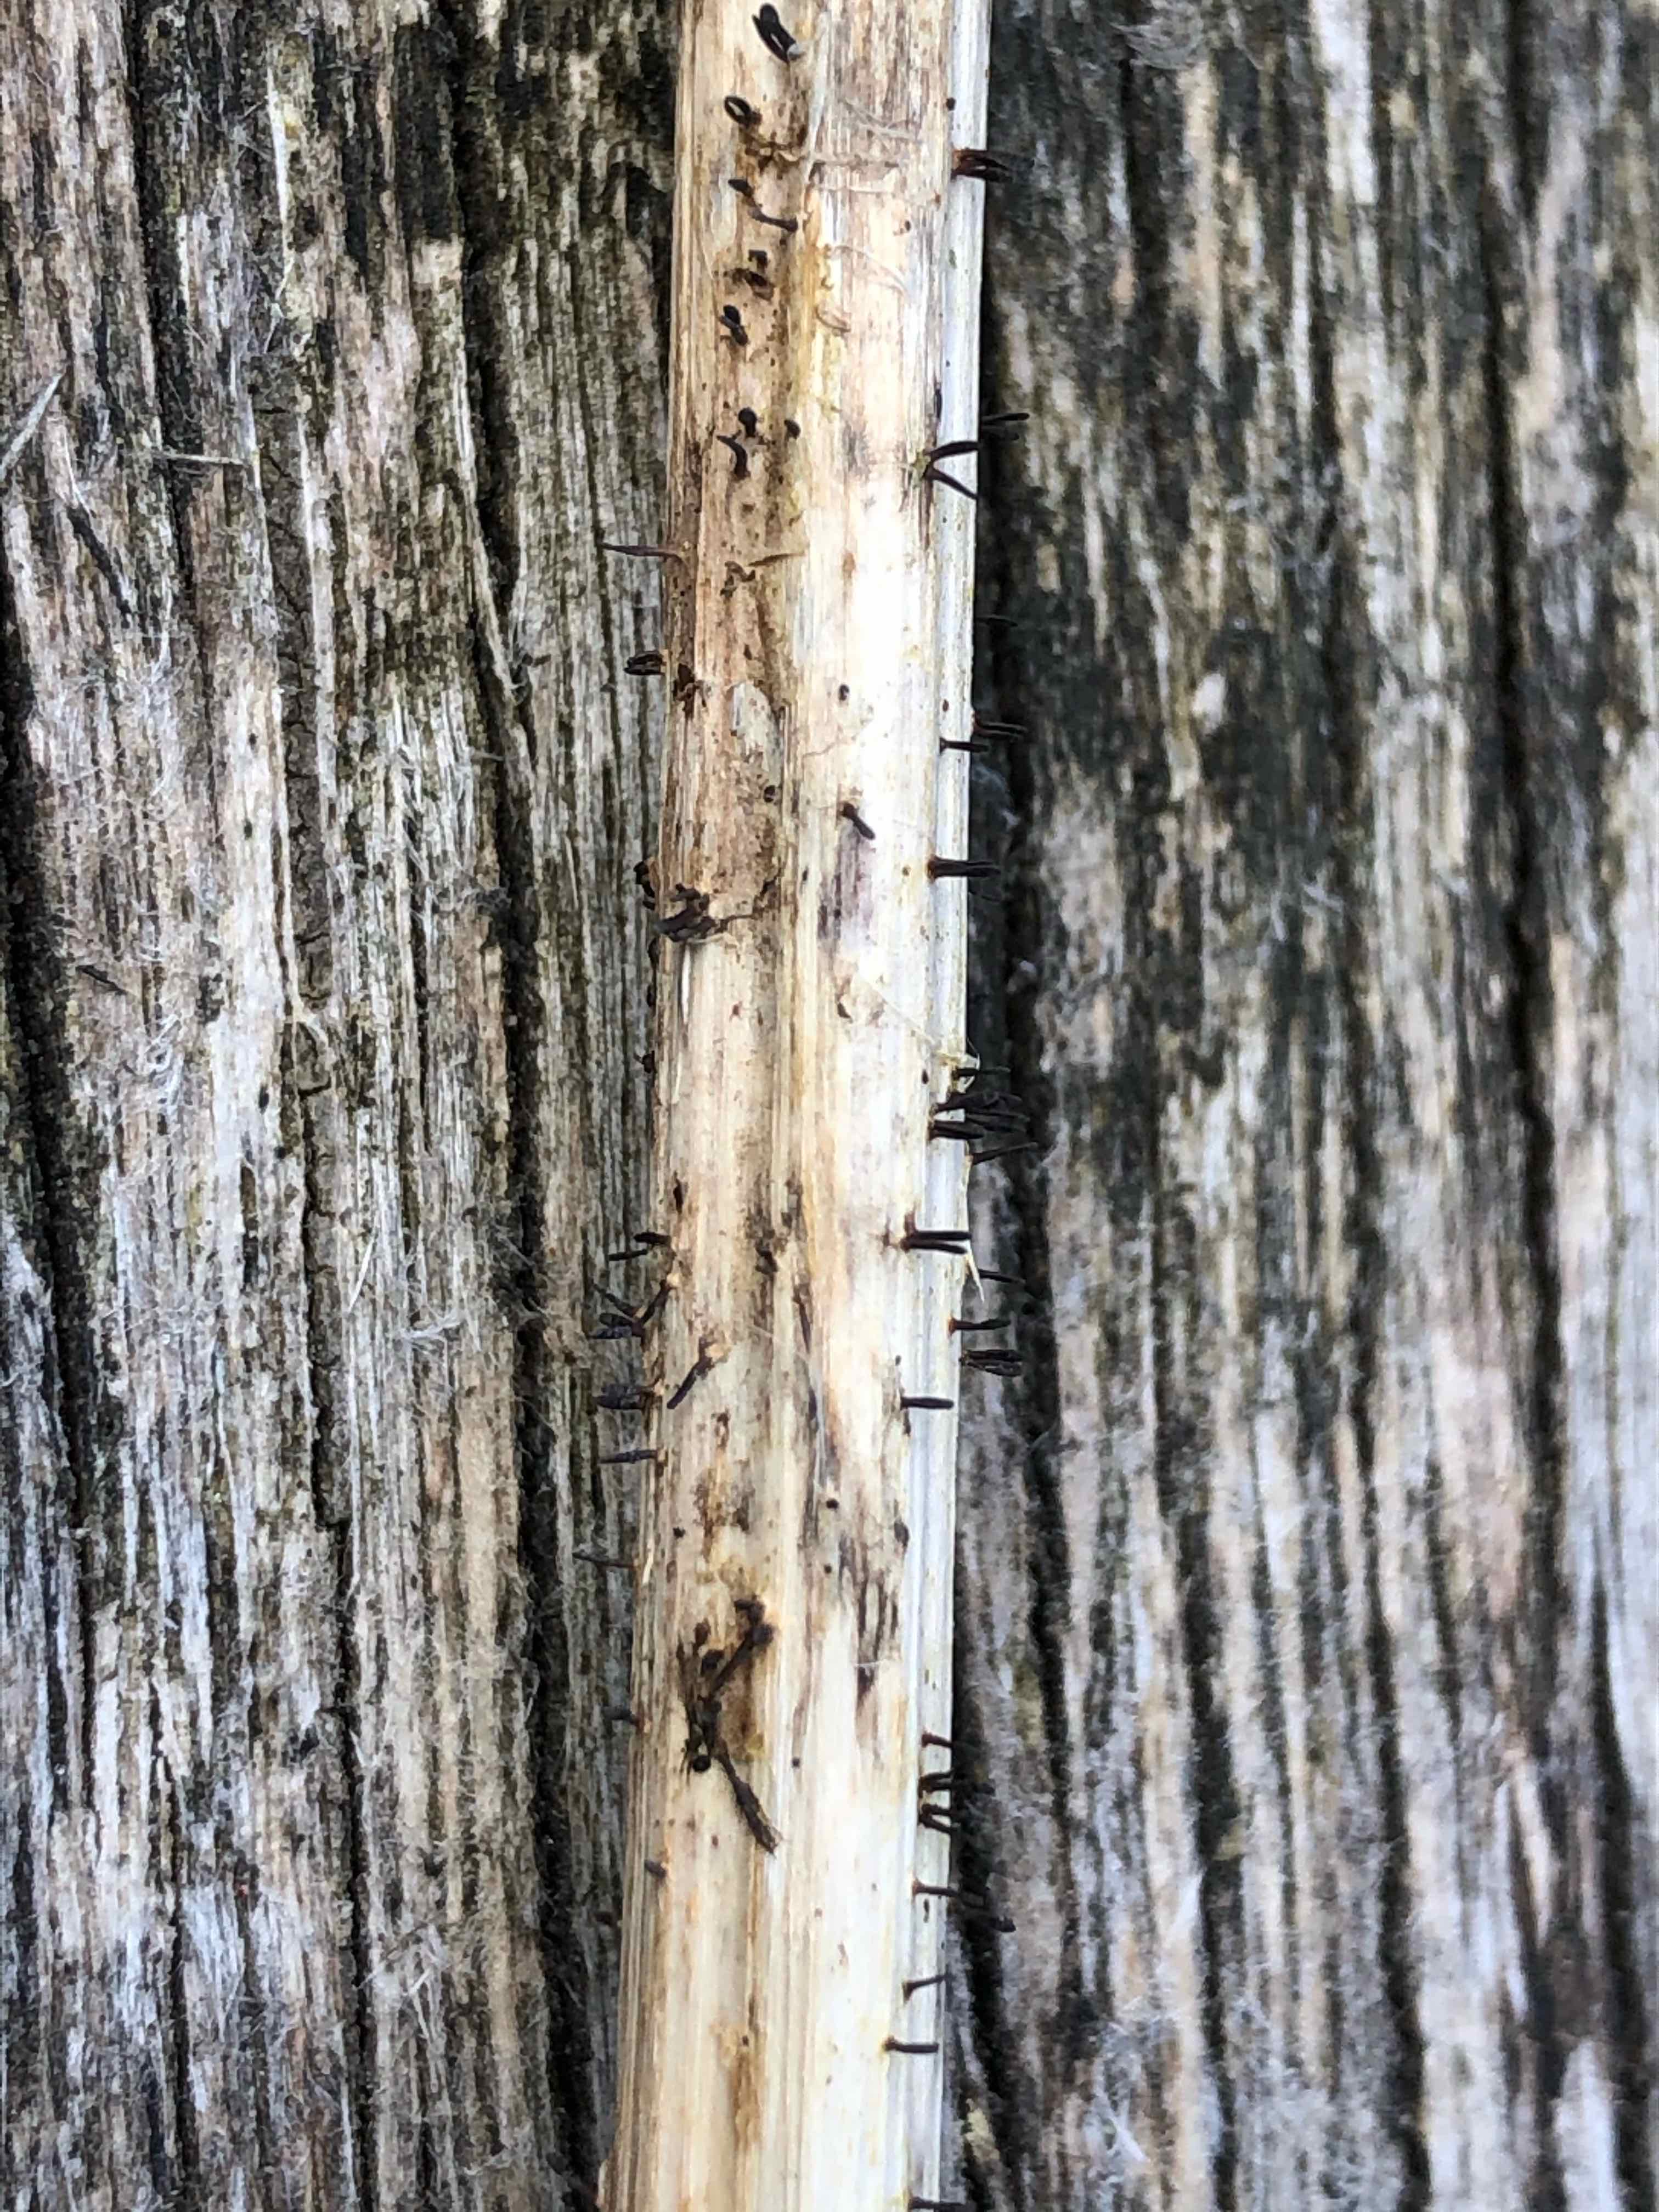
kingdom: Fungi
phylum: Ascomycota
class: Dothideomycetes
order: Acrospermales
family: Acrospermaceae
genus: Acrospermum
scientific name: Acrospermum compressum
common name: nælde-stængeltunge
